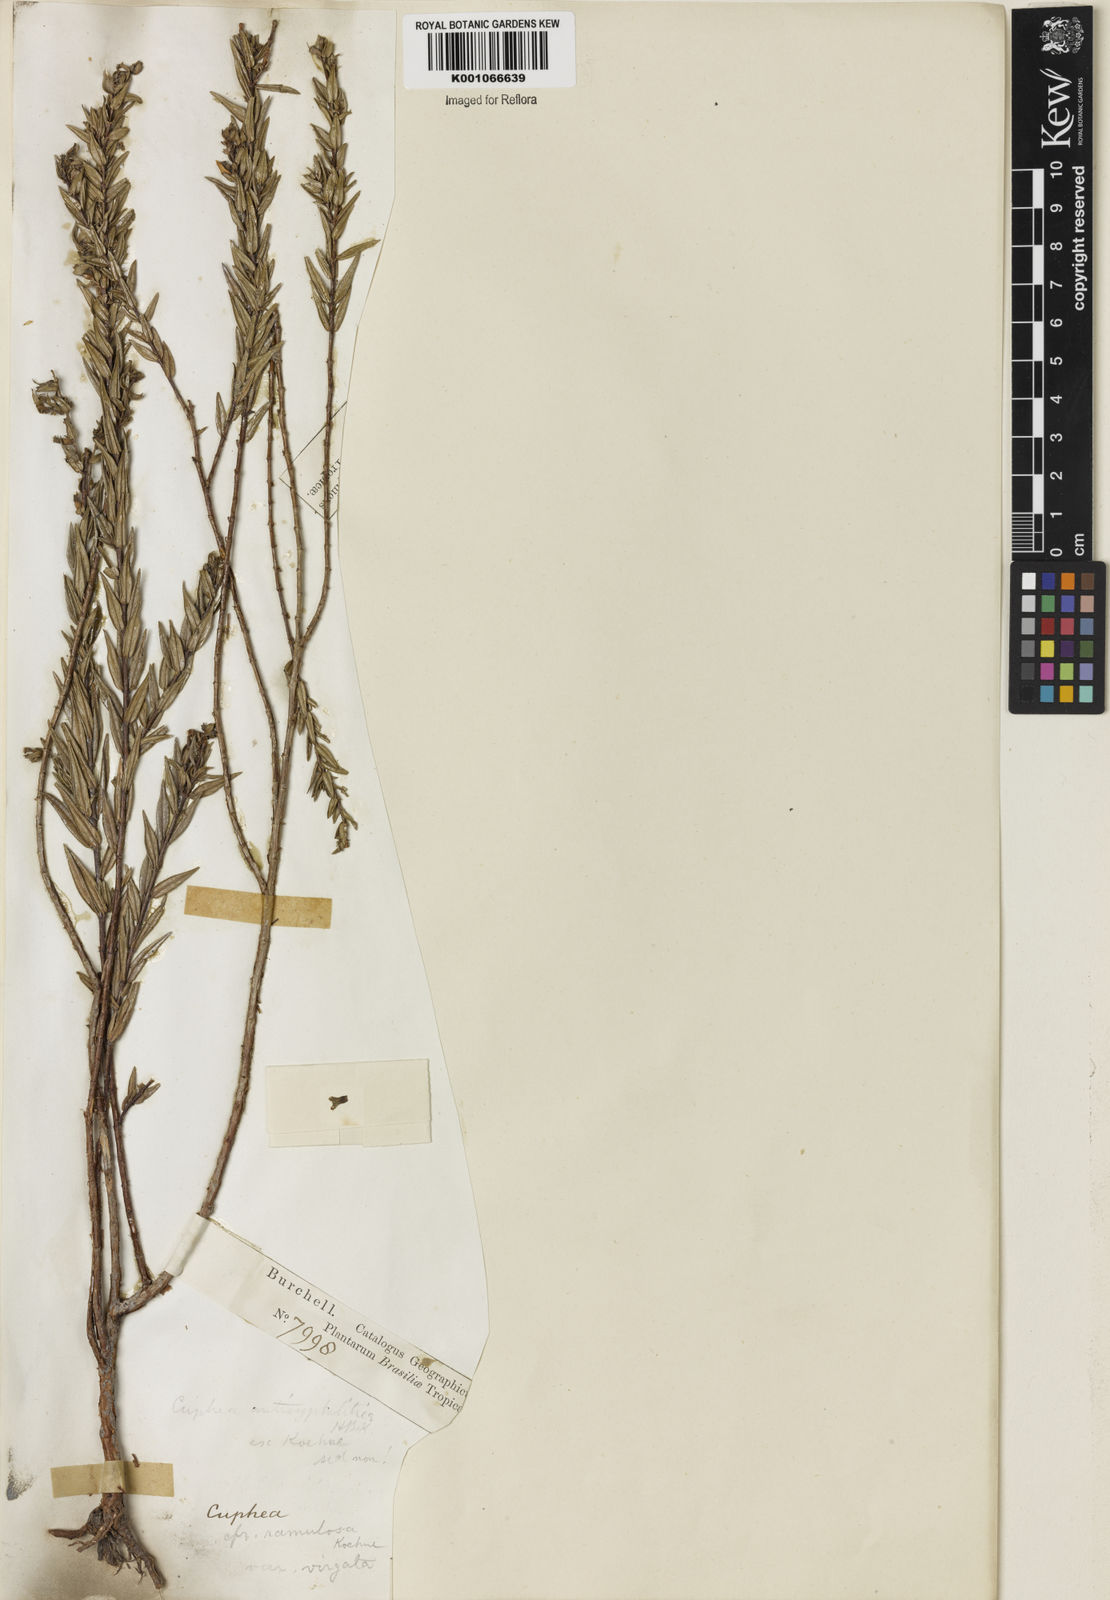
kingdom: Plantae
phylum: Tracheophyta
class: Magnoliopsida
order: Myrtales
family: Lythraceae
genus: Cuphea
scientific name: Cuphea antisyphilitica
